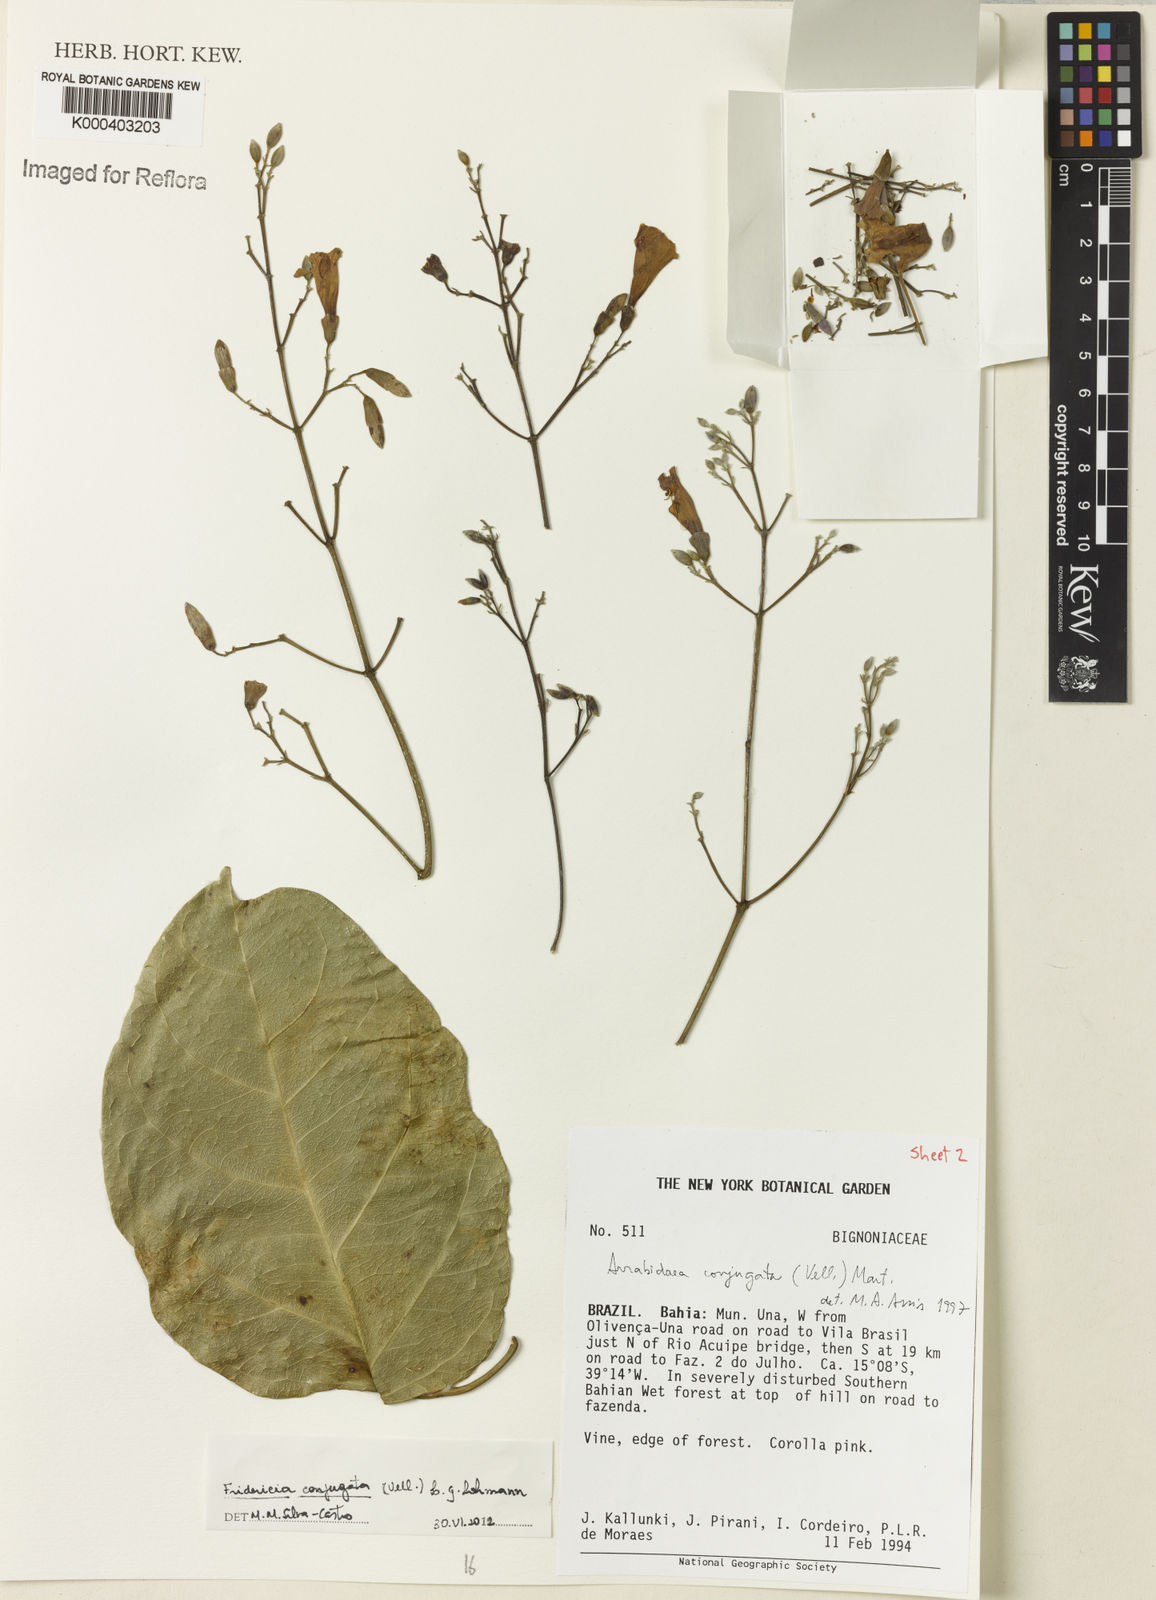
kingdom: Plantae
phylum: Tracheophyta
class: Magnoliopsida
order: Lamiales
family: Bignoniaceae
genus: Fridericia
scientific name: Fridericia conjugata
